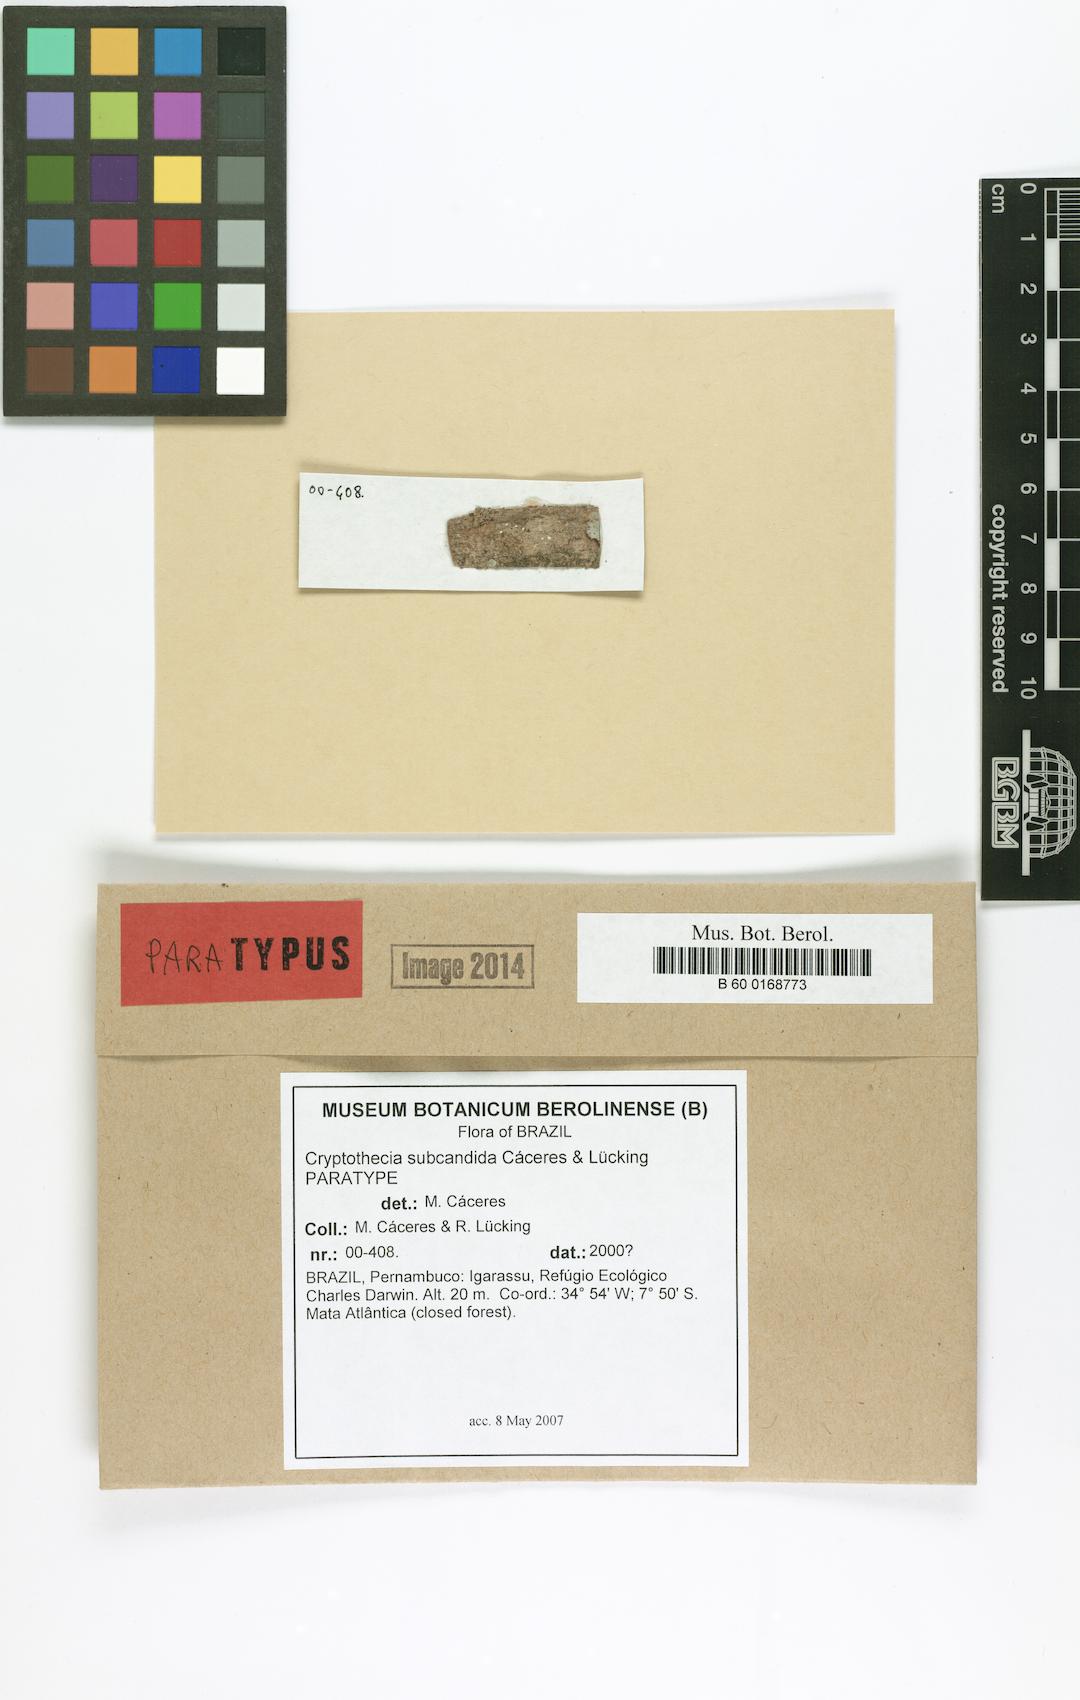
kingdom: Fungi
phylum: Ascomycota
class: Arthoniomycetes
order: Arthoniales
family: Arthoniaceae
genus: Myriostigma
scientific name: Myriostigma subcandidum
